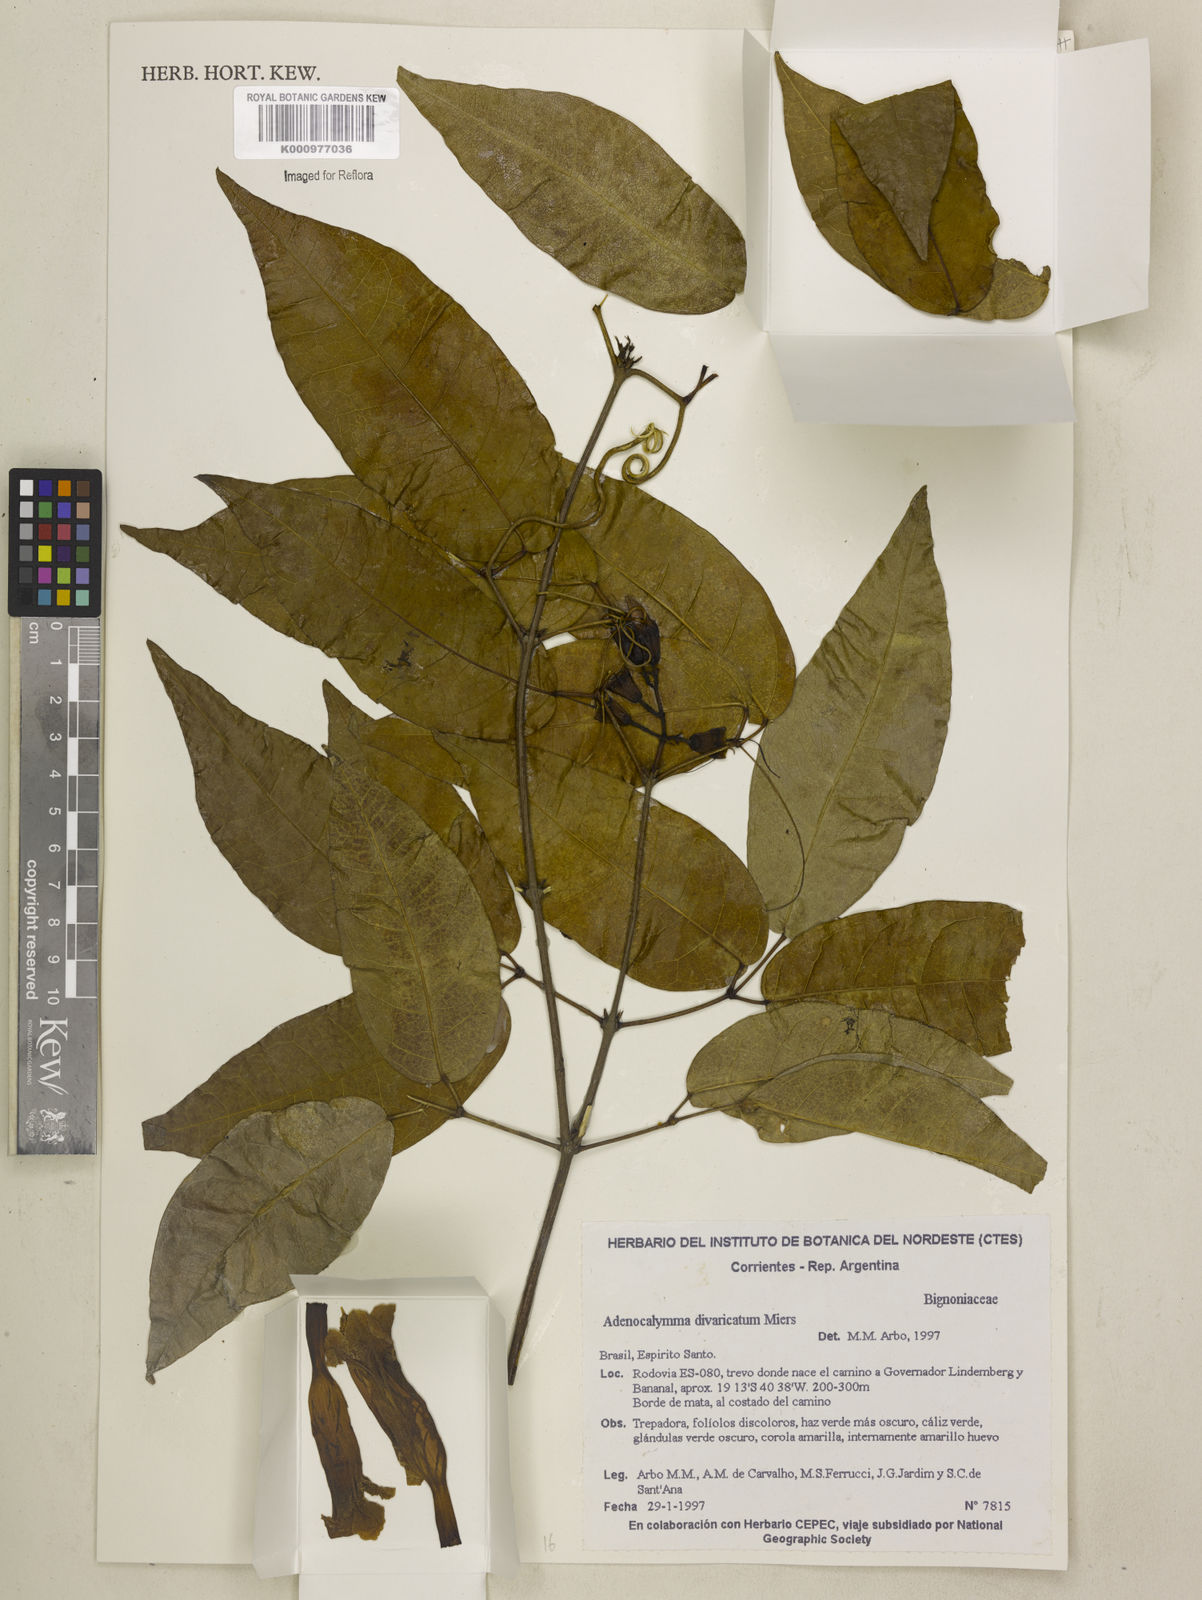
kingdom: Plantae
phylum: Tracheophyta
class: Magnoliopsida
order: Lamiales
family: Bignoniaceae
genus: Adenocalymma
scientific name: Adenocalymma divaricatum
